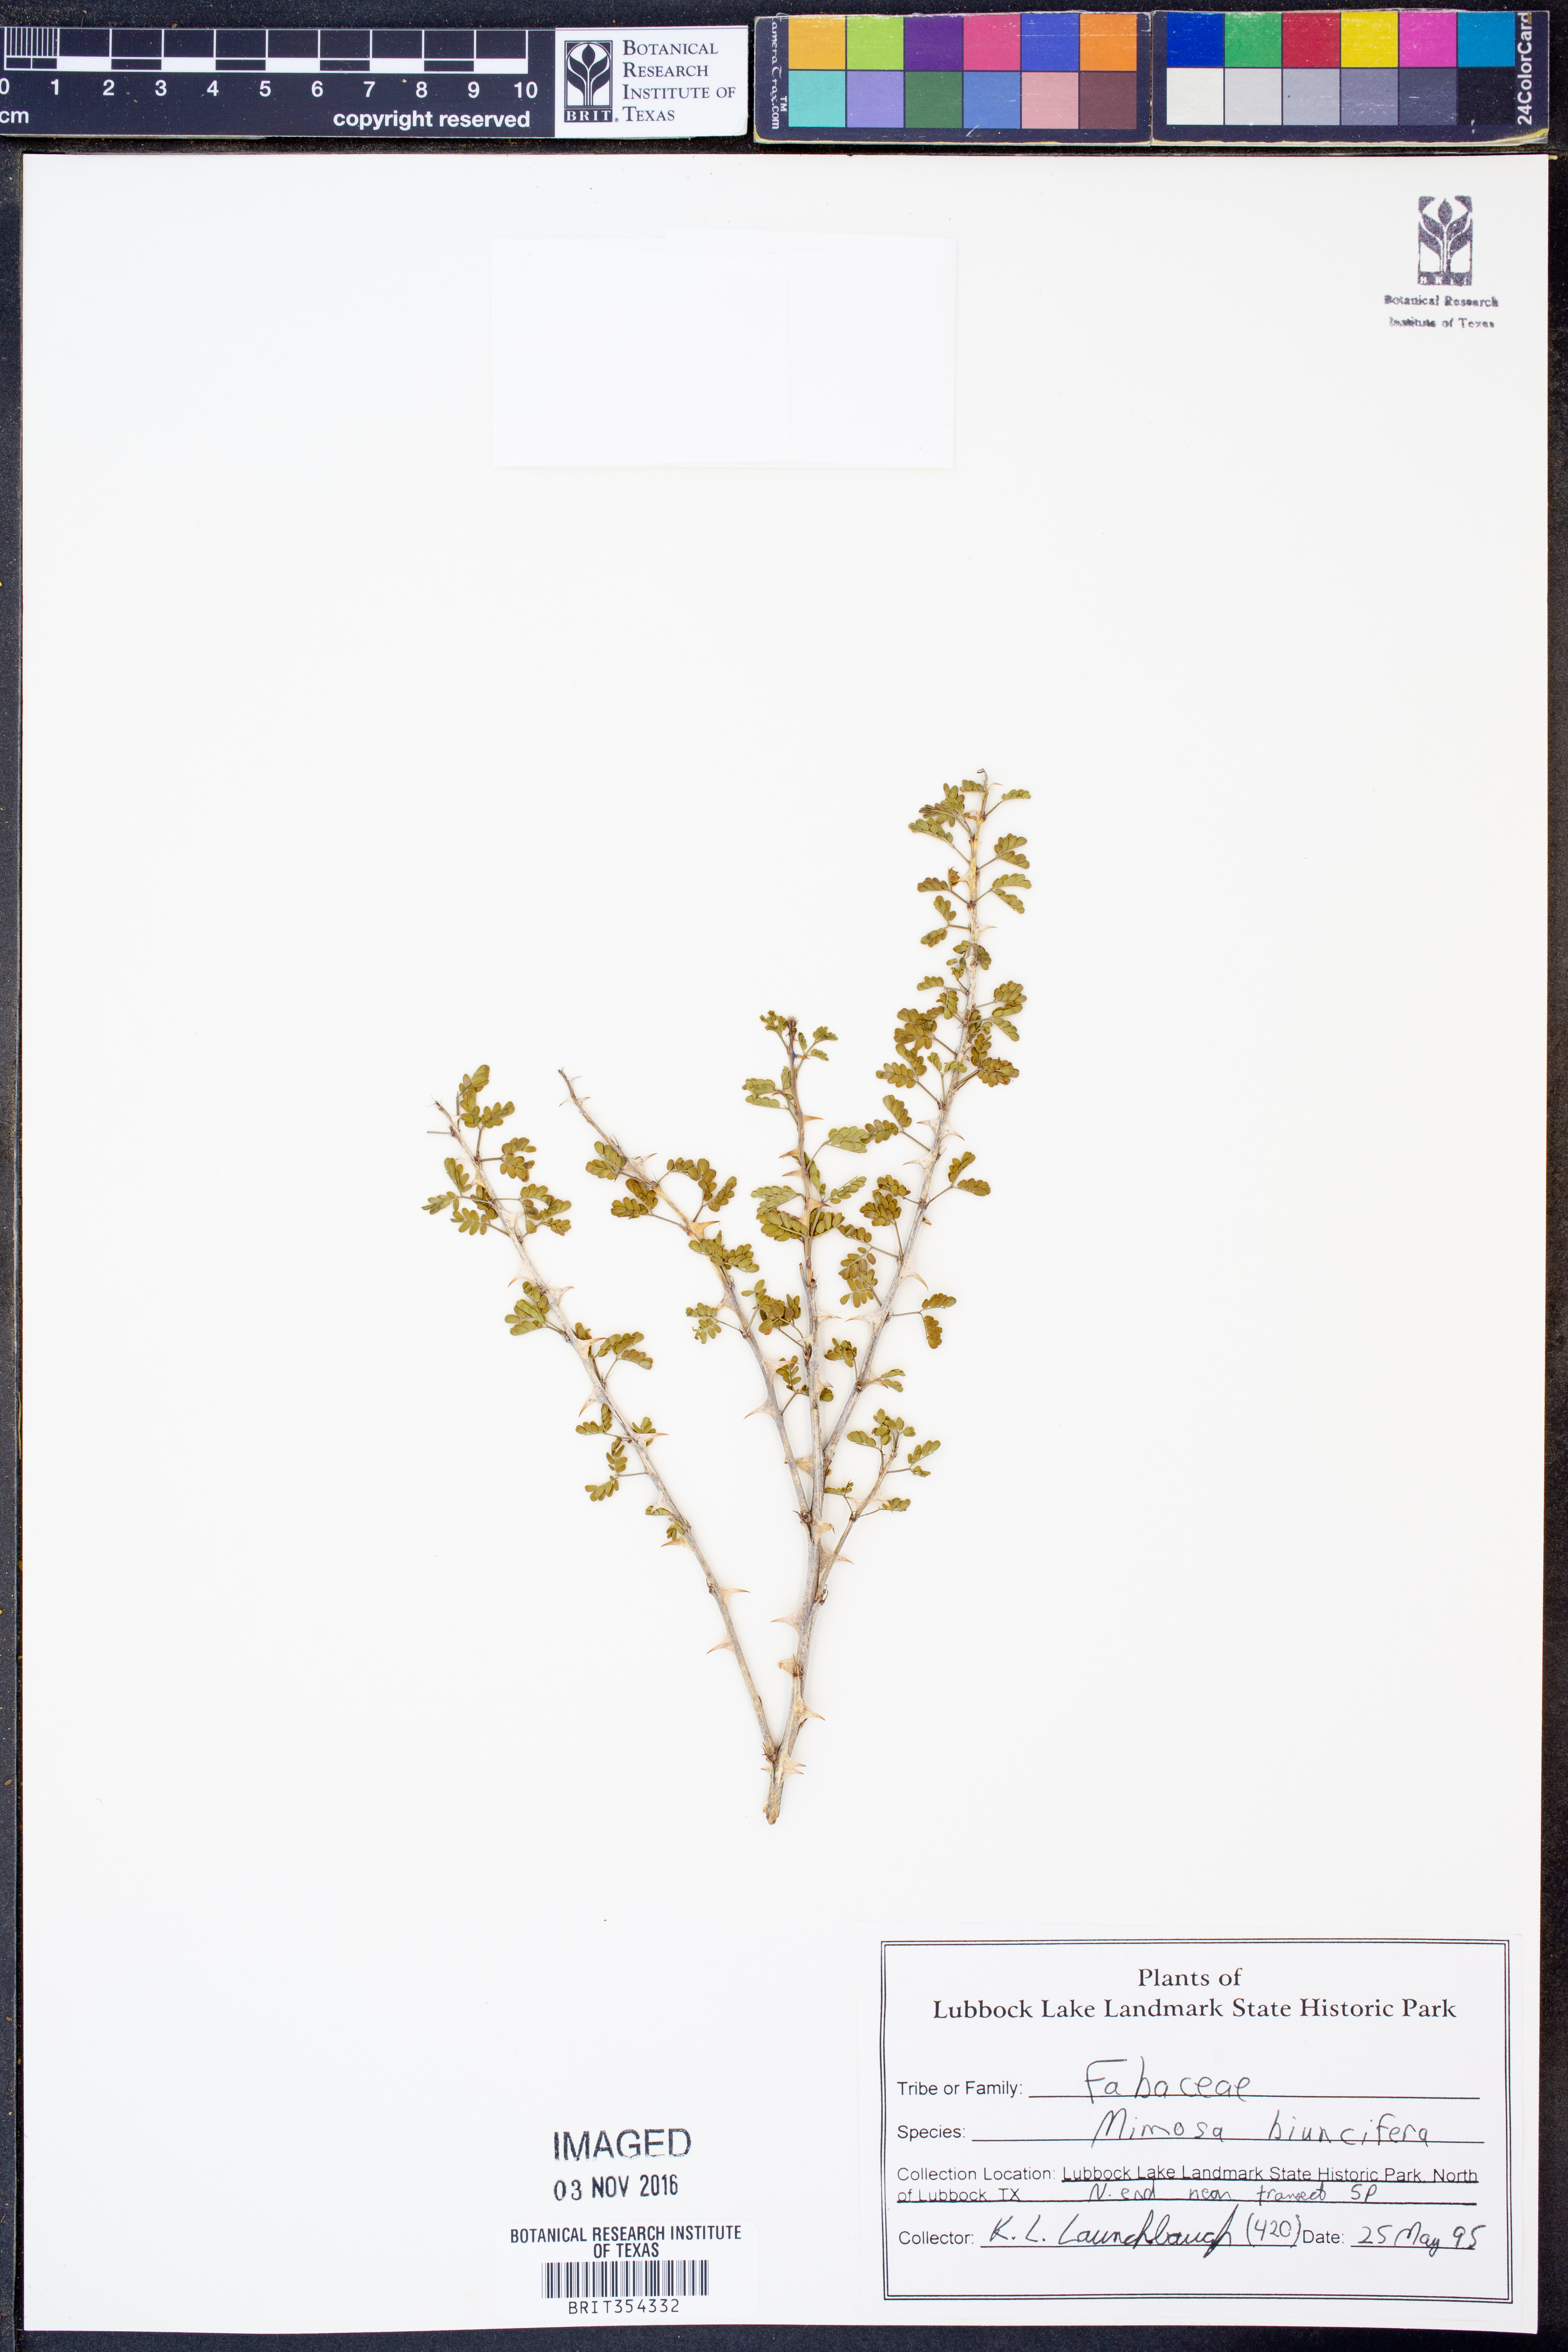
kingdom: Plantae
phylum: Tracheophyta
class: Magnoliopsida
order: Fabales
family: Fabaceae
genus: Mimosa
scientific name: Mimosa biuncifera
